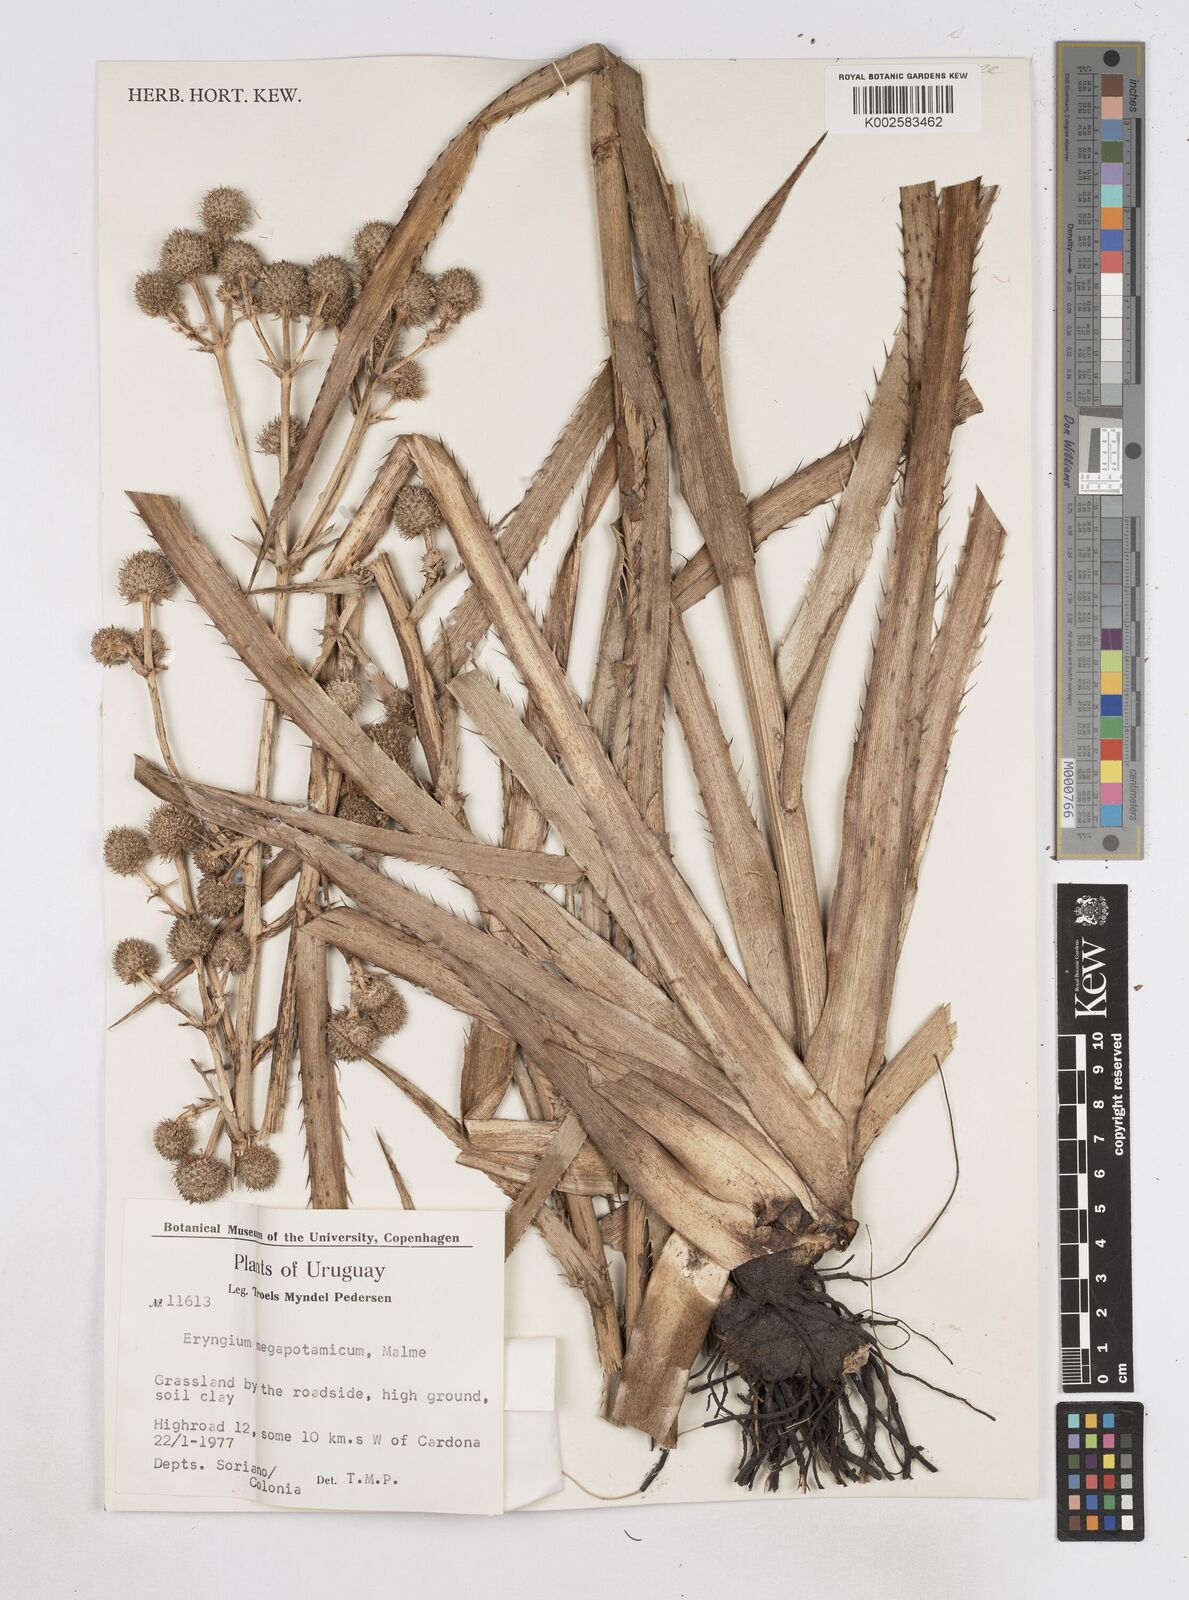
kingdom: Plantae
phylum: Tracheophyta
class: Magnoliopsida
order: Apiales
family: Apiaceae
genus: Eryngium
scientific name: Eryngium megapotamicum
